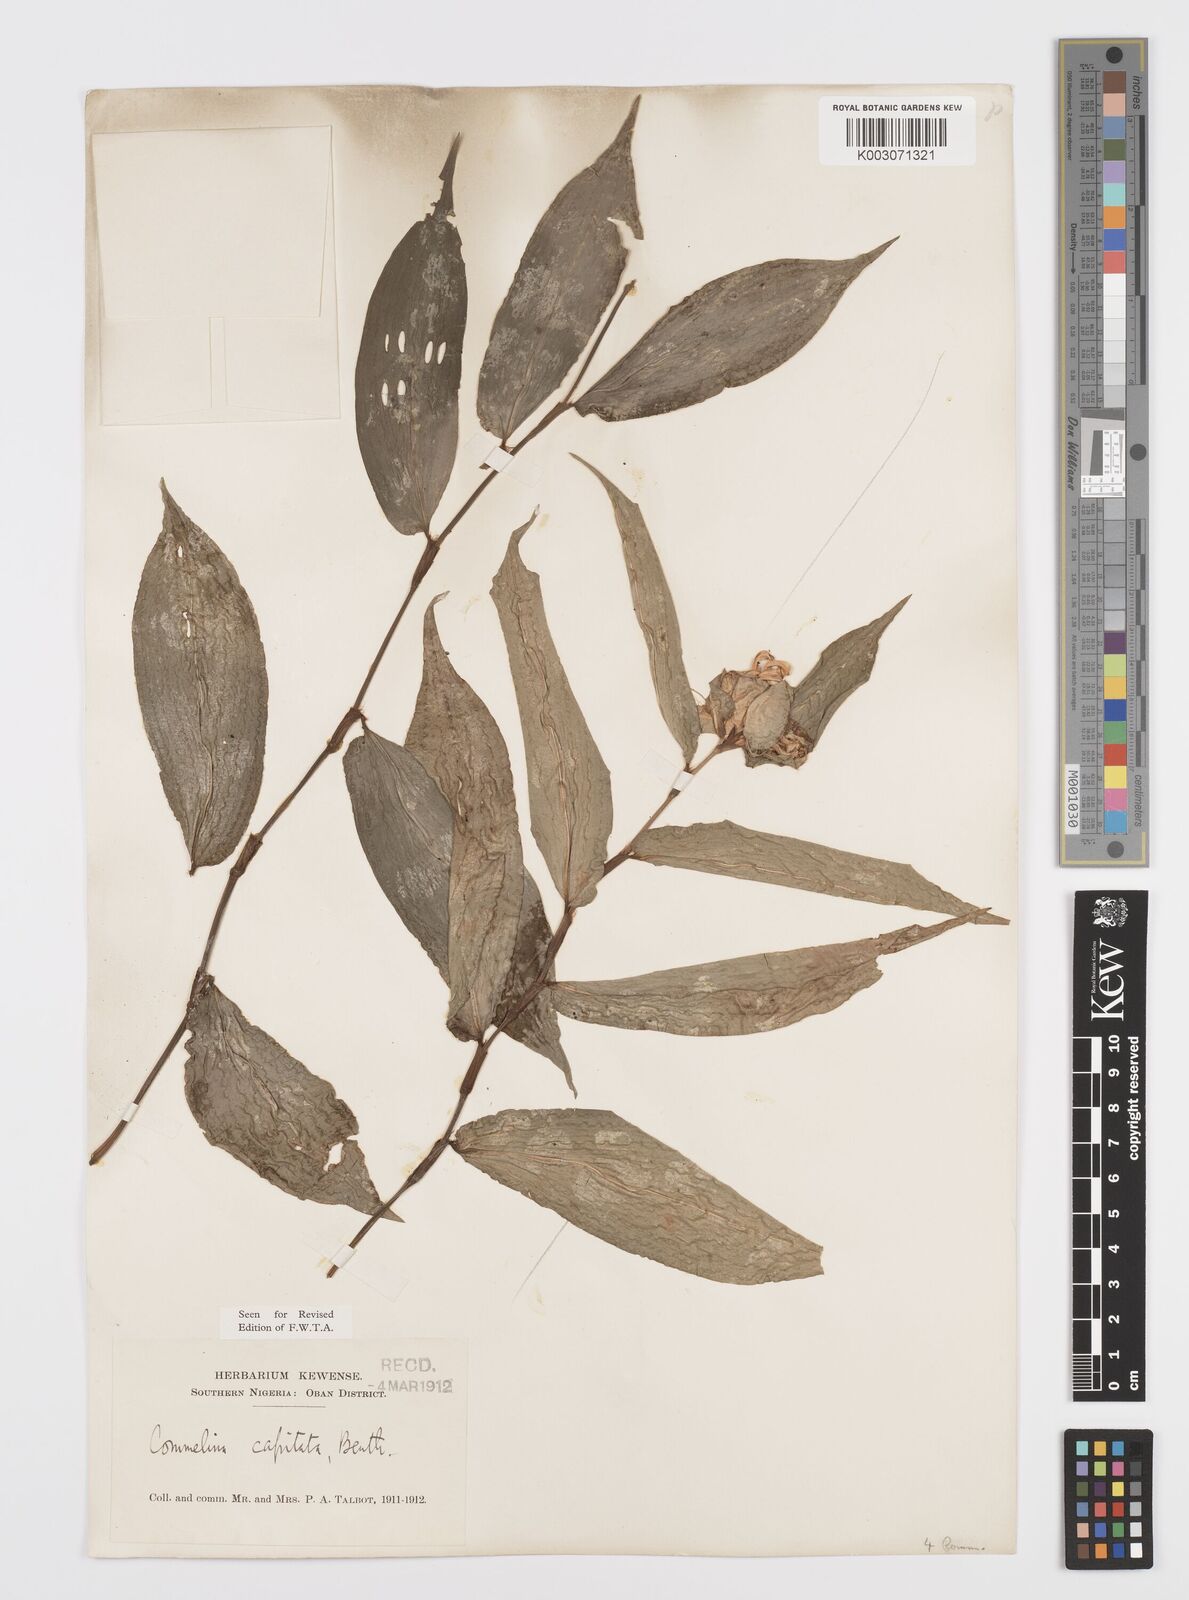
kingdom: Plantae
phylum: Tracheophyta
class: Liliopsida
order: Commelinales
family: Commelinaceae
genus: Commelina
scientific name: Commelina capitata
